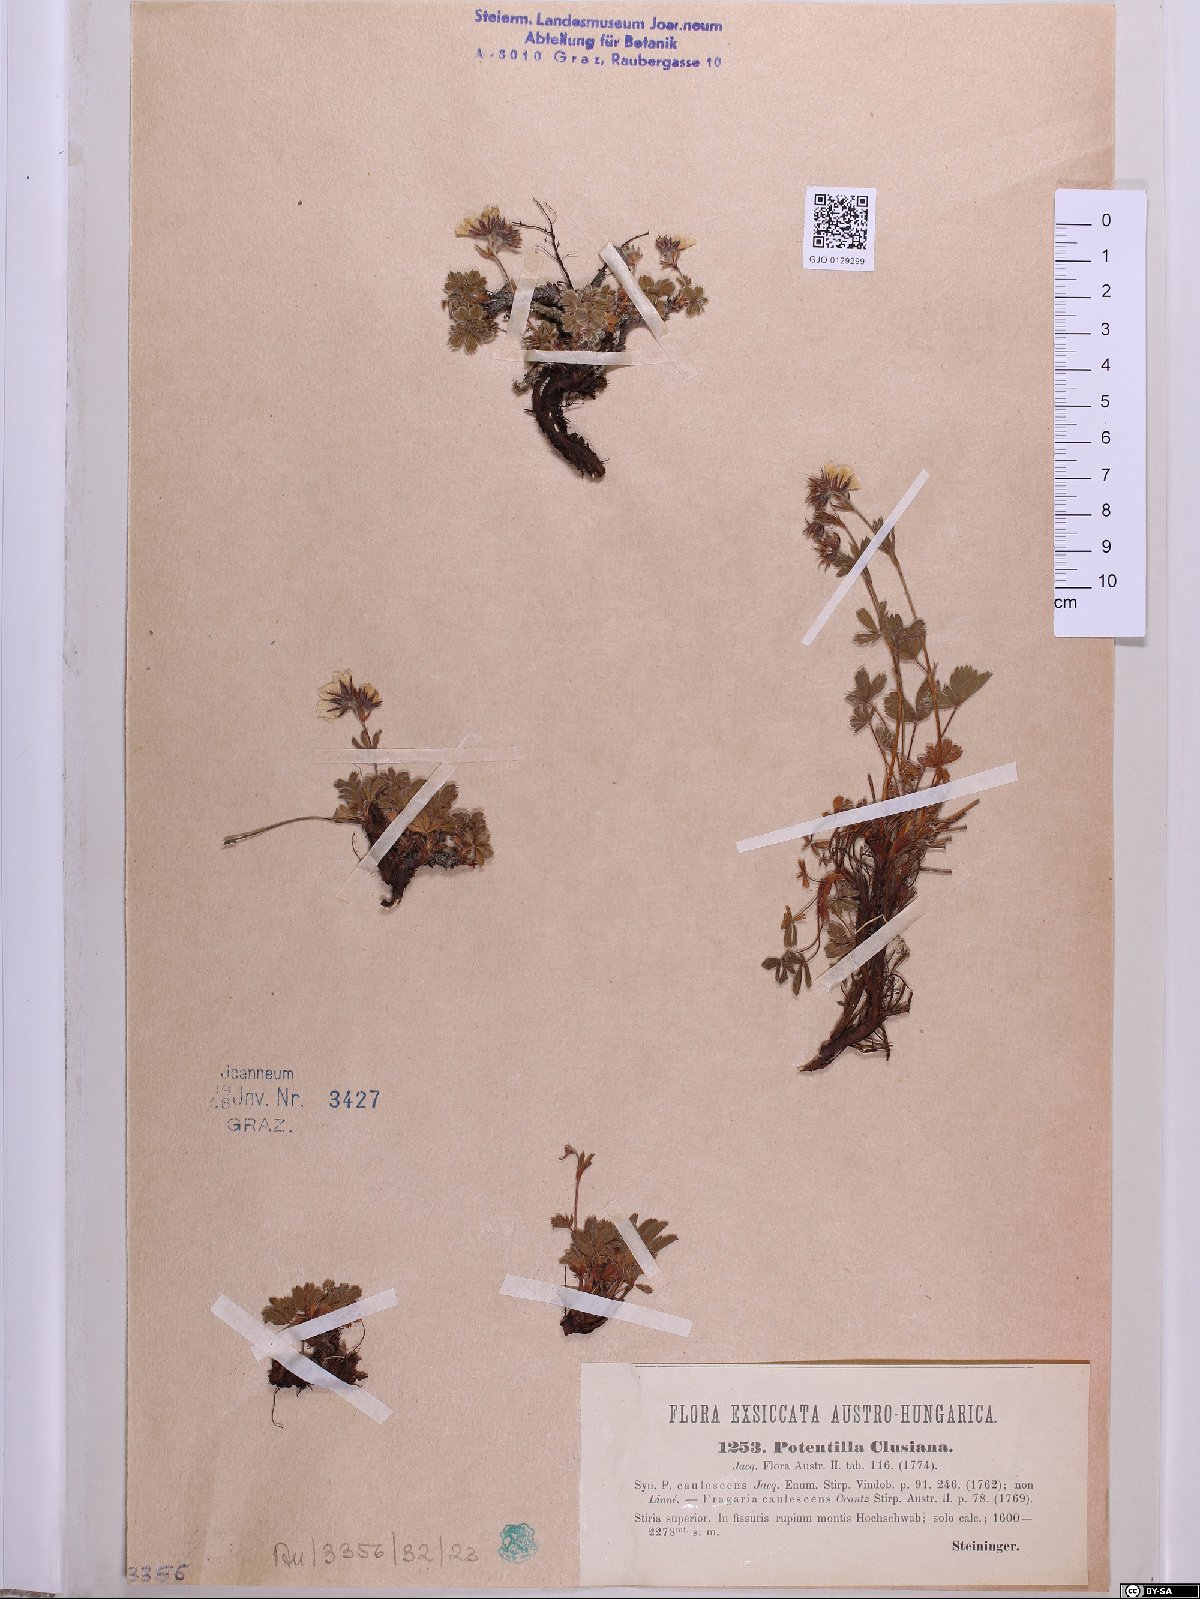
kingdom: Plantae
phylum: Tracheophyta
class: Magnoliopsida
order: Rosales
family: Rosaceae
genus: Potentilla
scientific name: Potentilla clusiana
